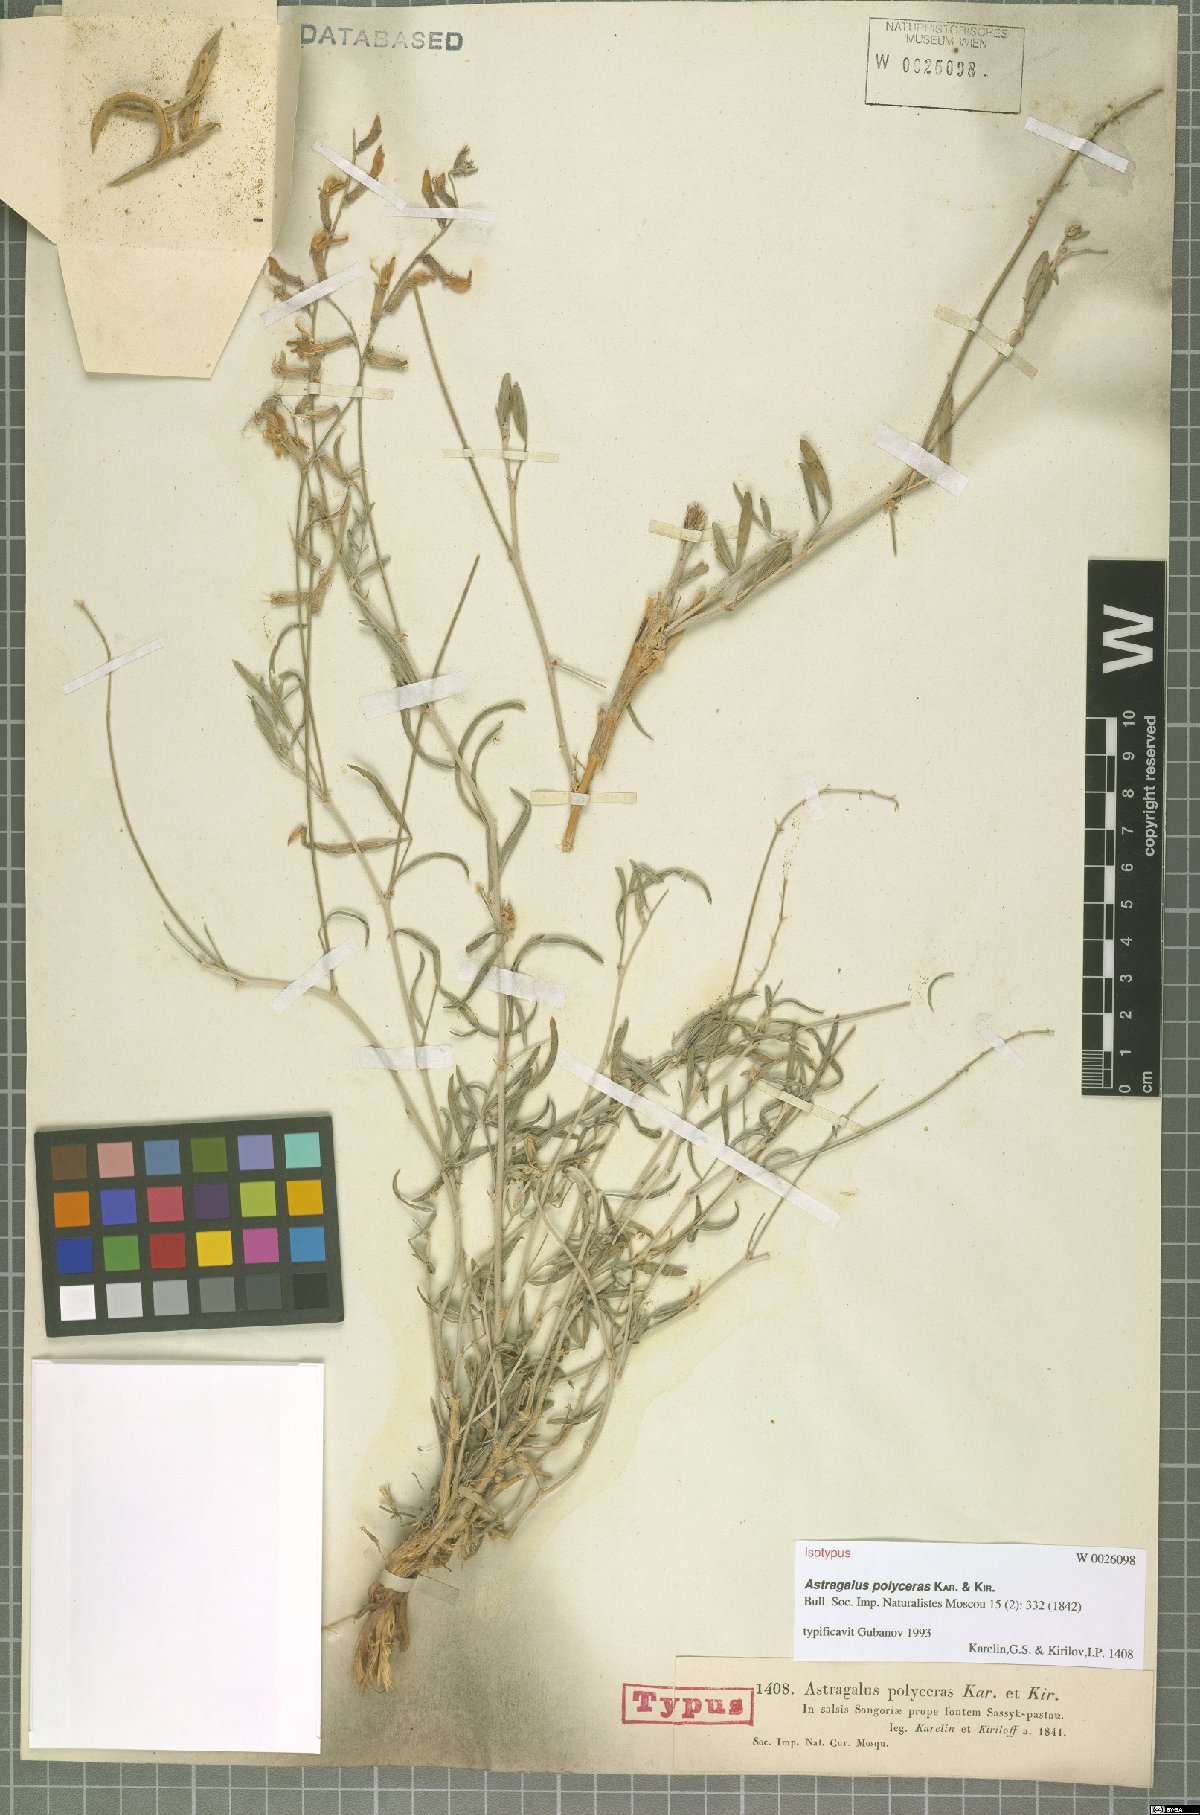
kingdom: Plantae
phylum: Tracheophyta
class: Magnoliopsida
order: Fabales
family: Fabaceae
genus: Astragalus
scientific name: Astragalus polyceras
